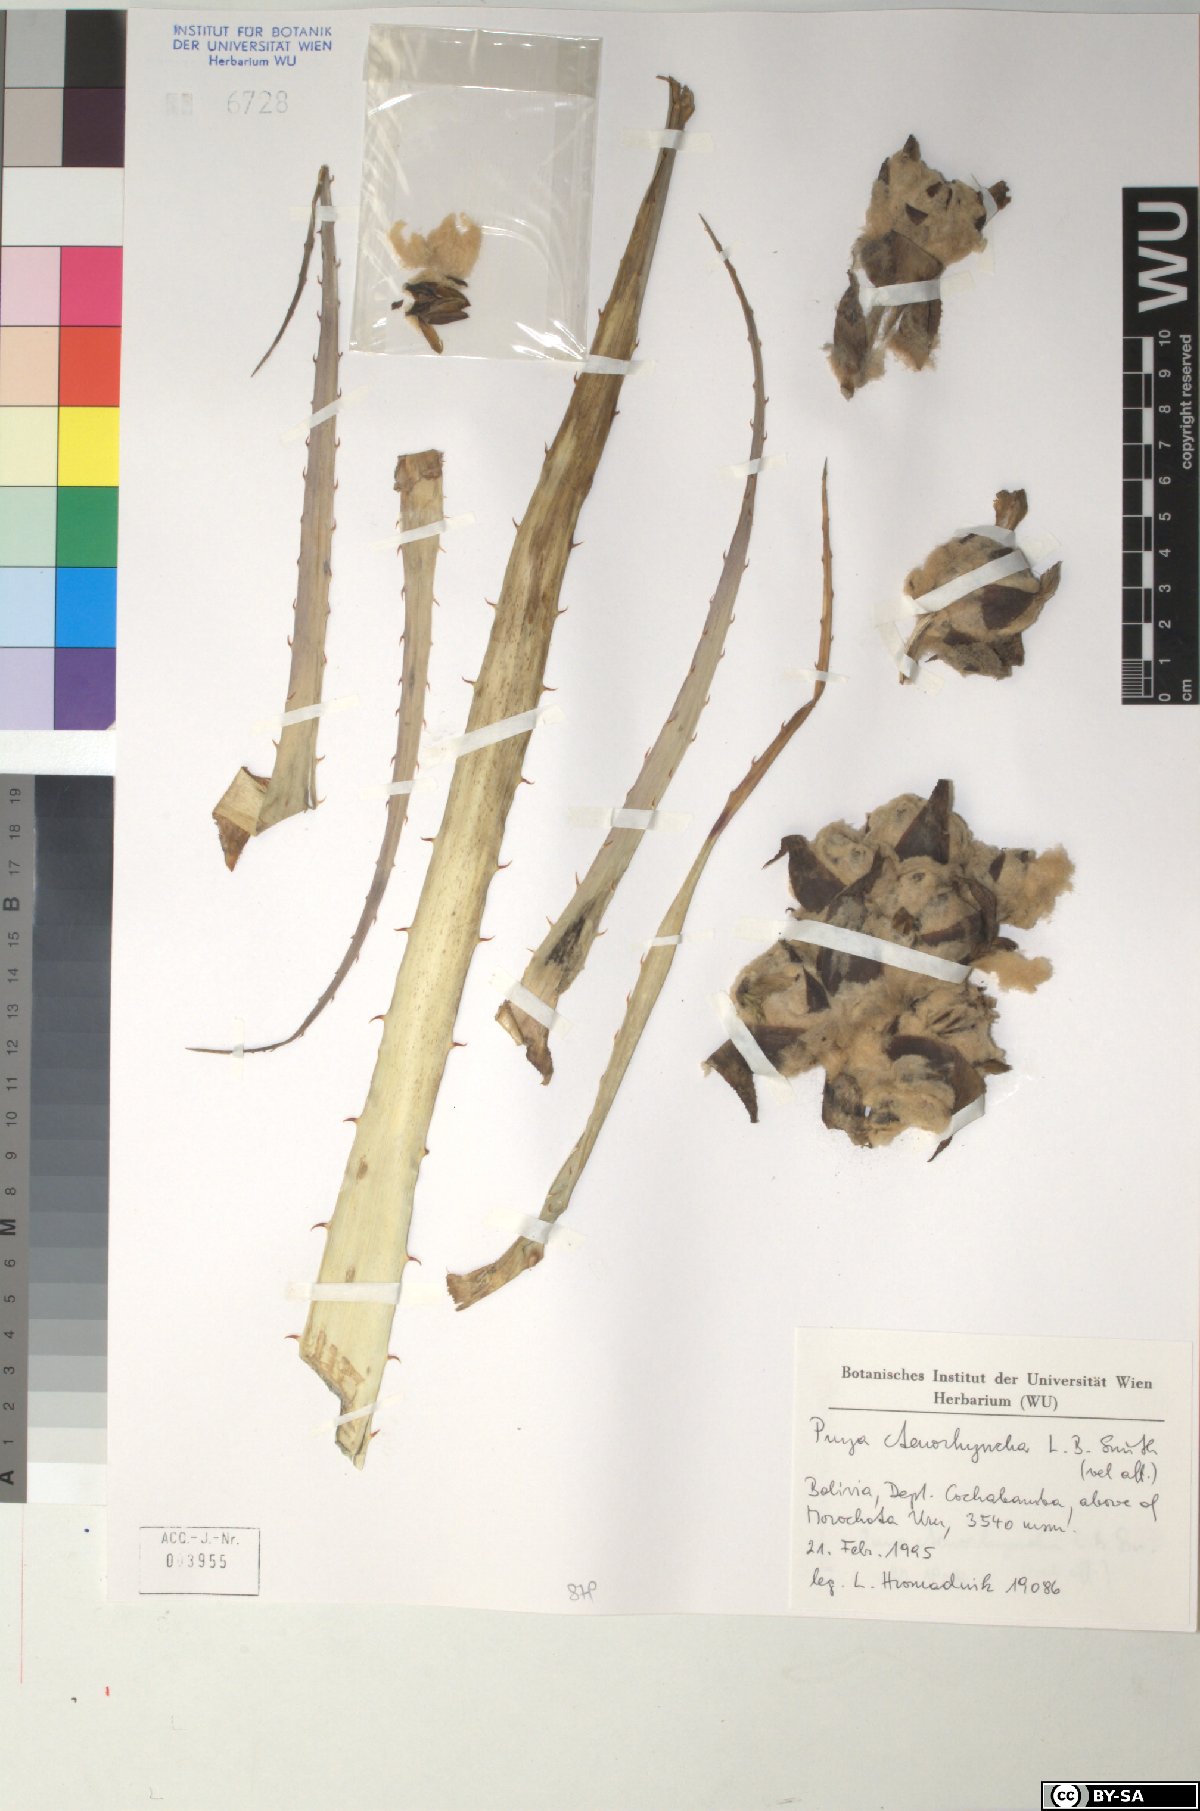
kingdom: Plantae
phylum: Tracheophyta
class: Liliopsida
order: Poales
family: Bromeliaceae
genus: Puya
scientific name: Puya ctenorhyncha
